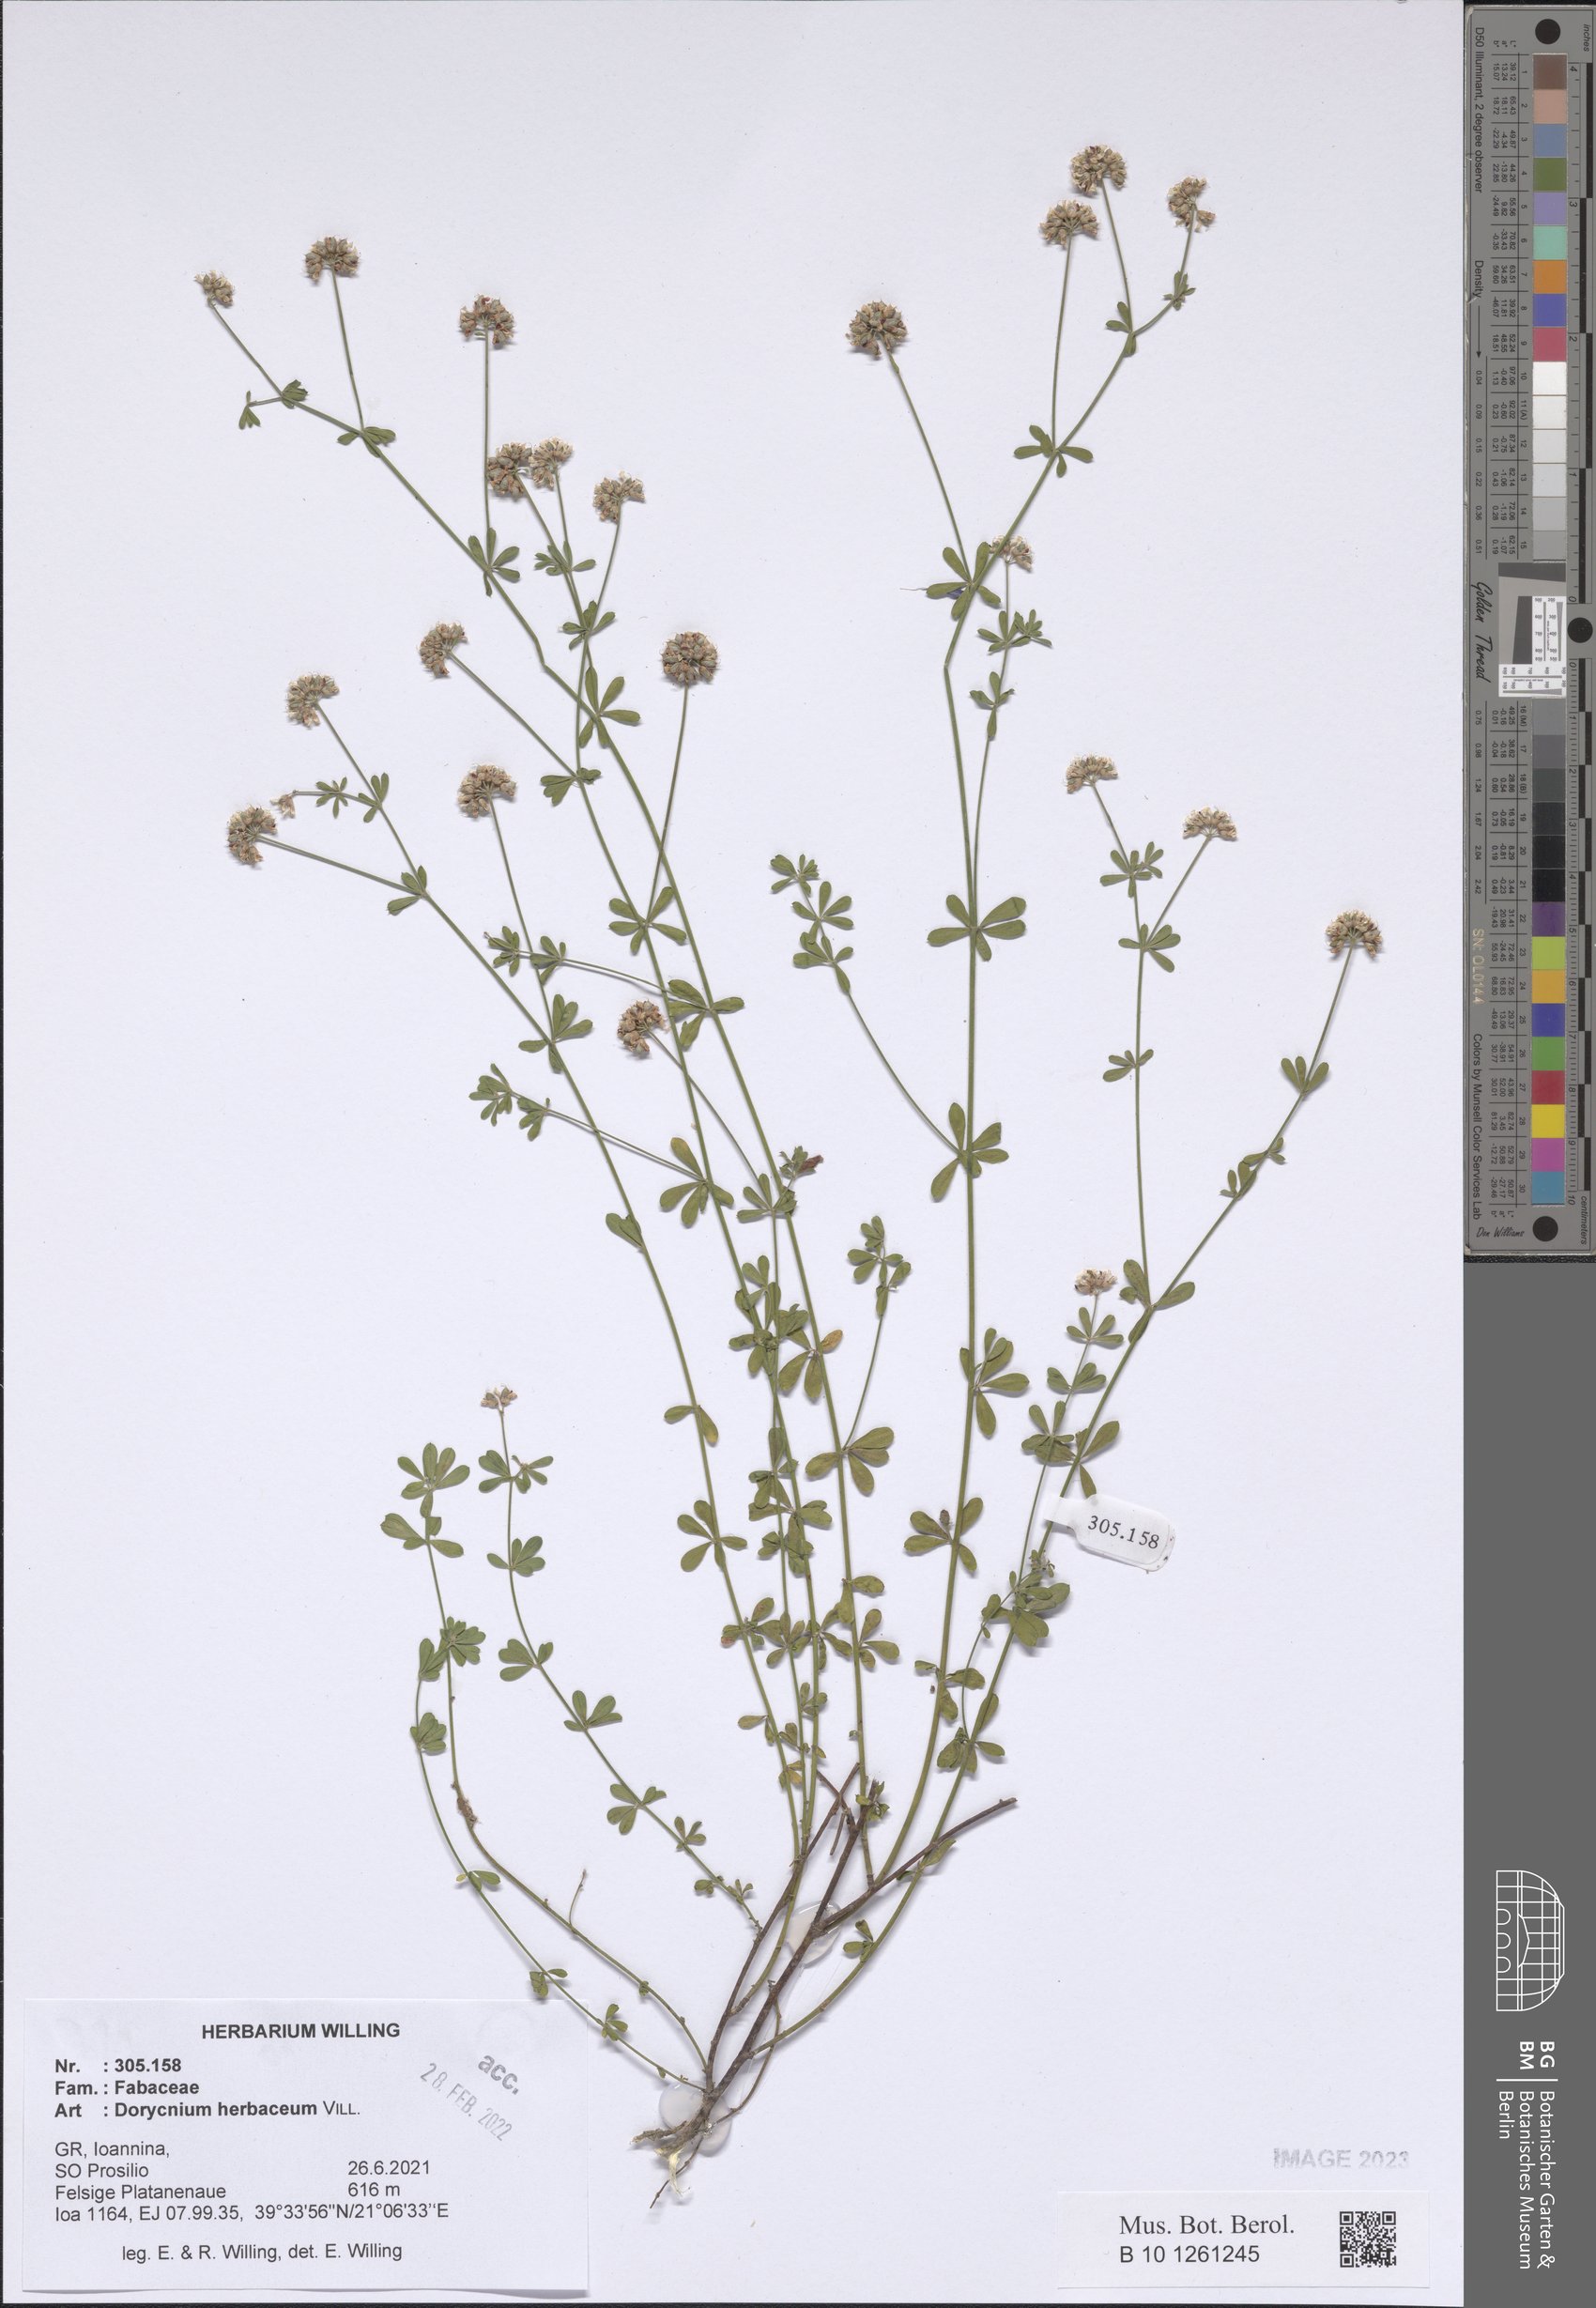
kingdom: Plantae
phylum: Tracheophyta
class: Magnoliopsida
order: Fabales
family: Fabaceae
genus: Lotus
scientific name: Lotus herbaceus
